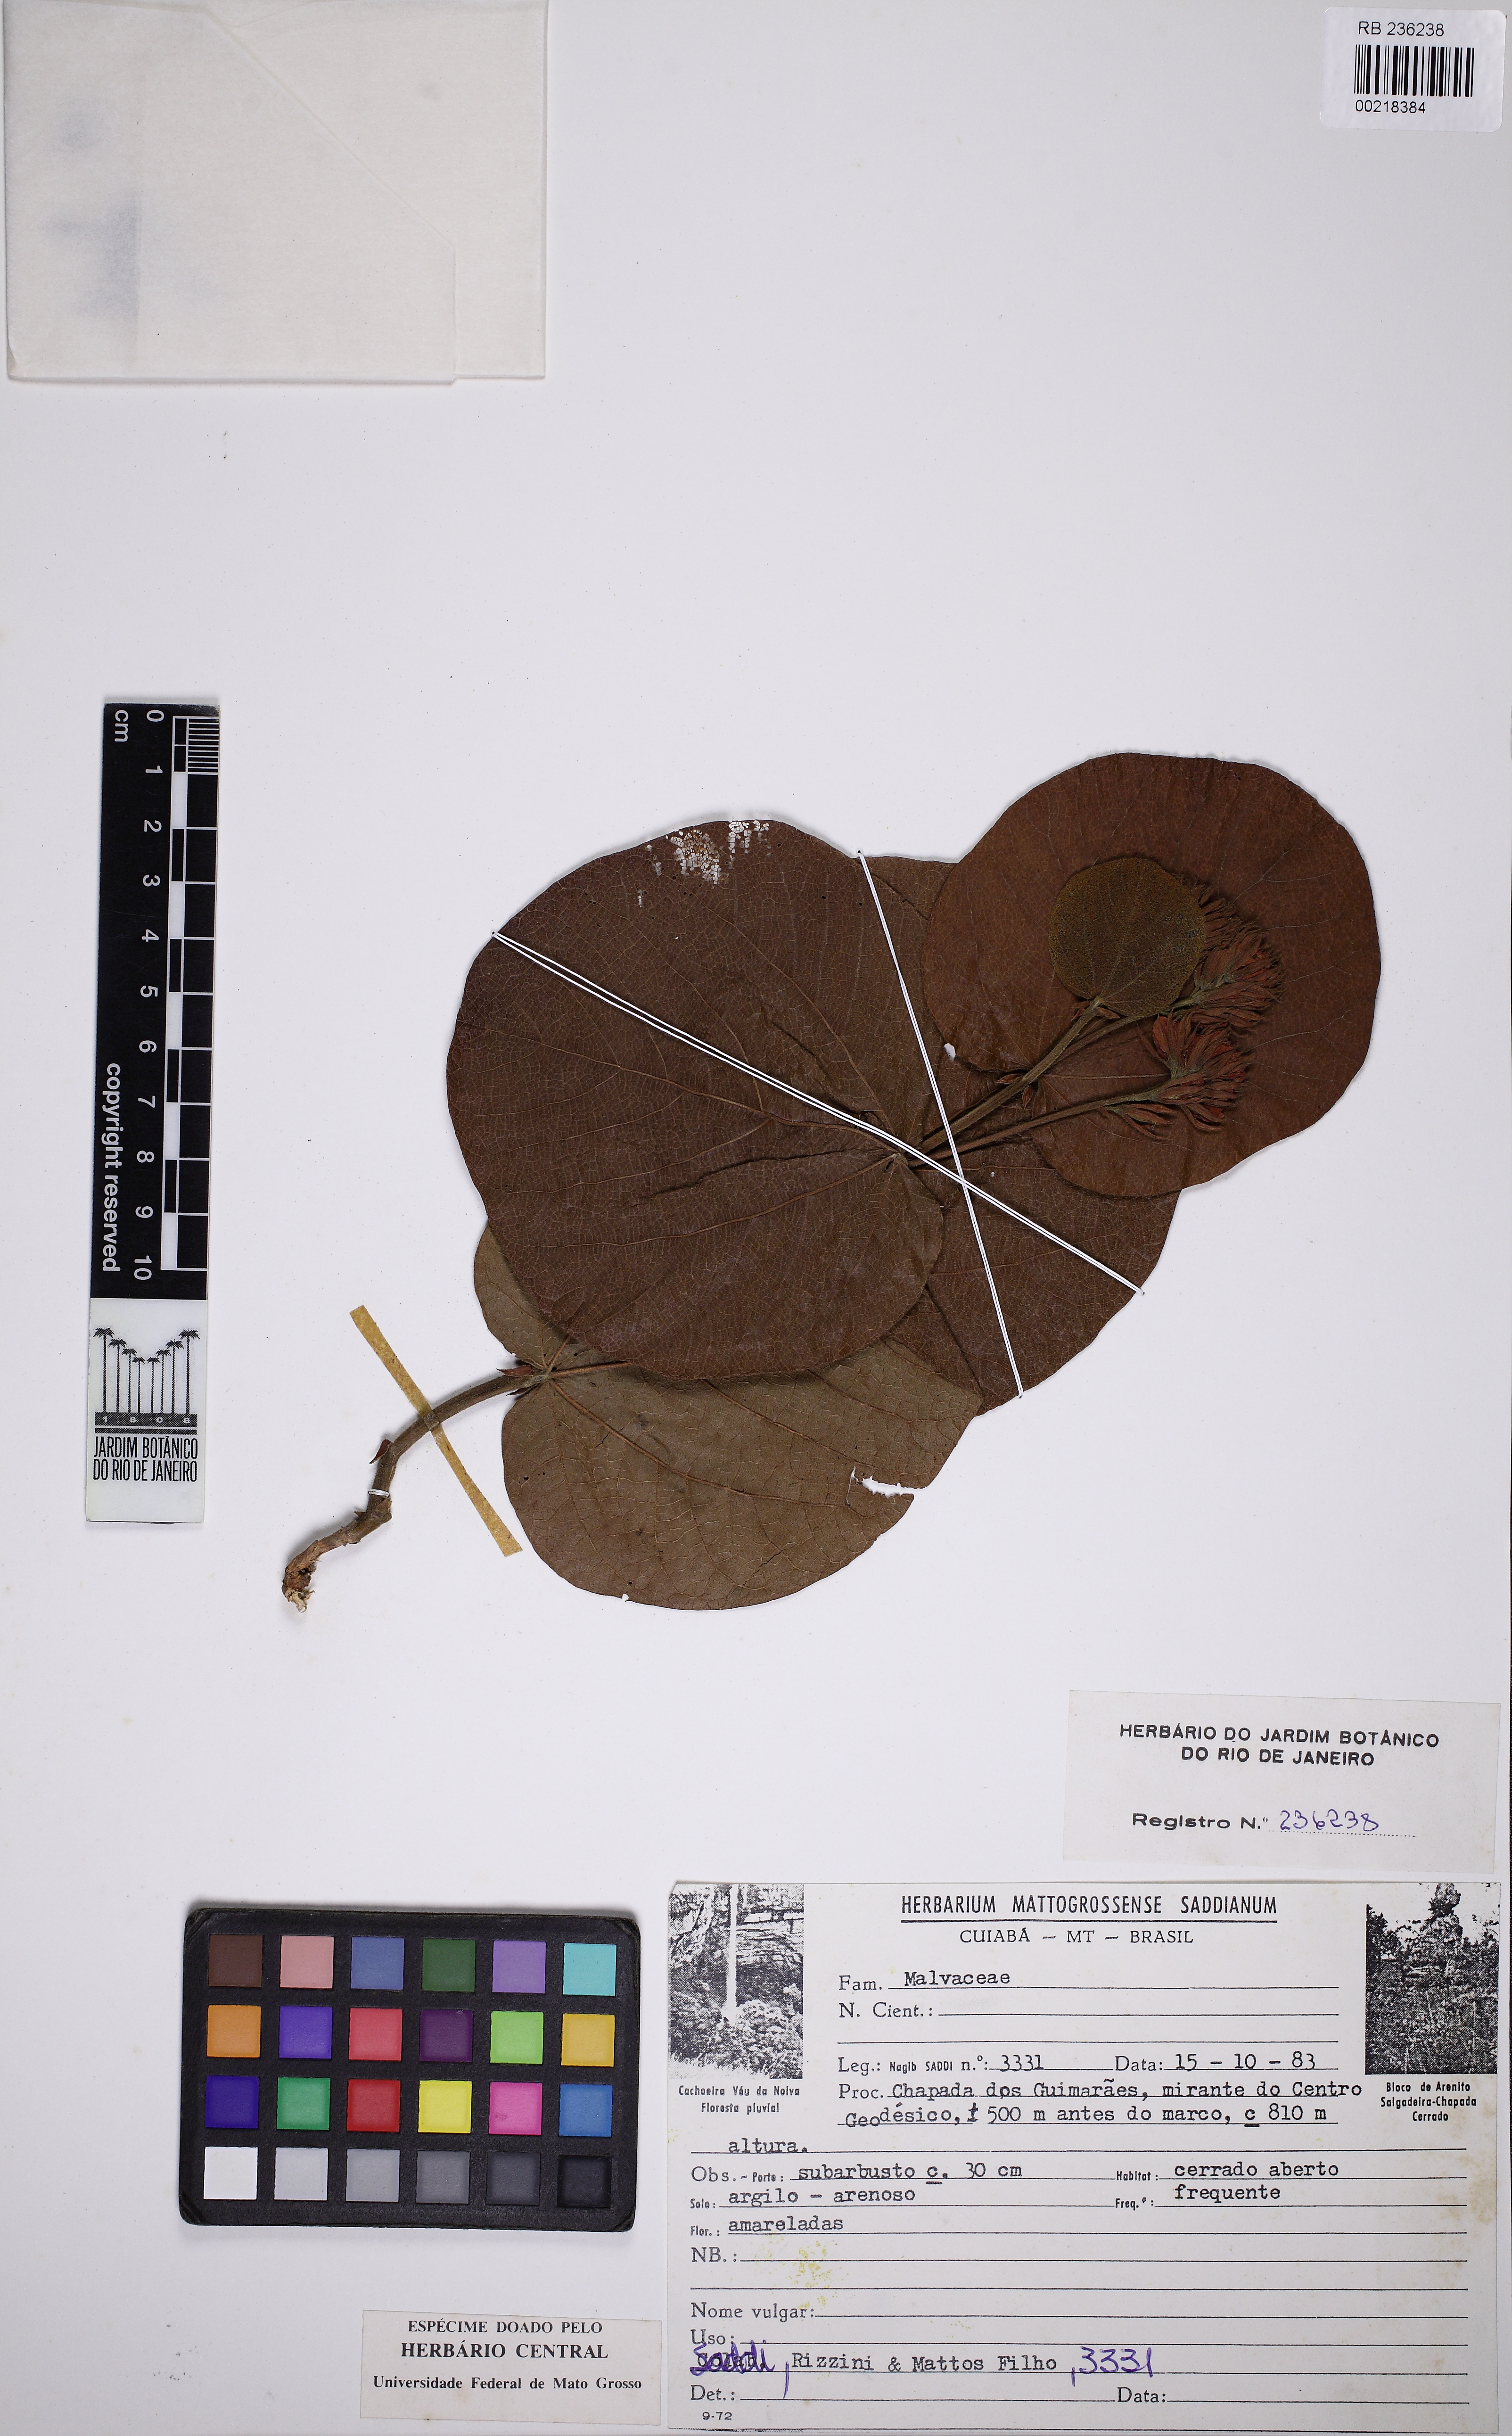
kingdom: Plantae
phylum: Tracheophyta
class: Magnoliopsida
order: Malvales
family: Malvaceae
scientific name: Malvaceae
